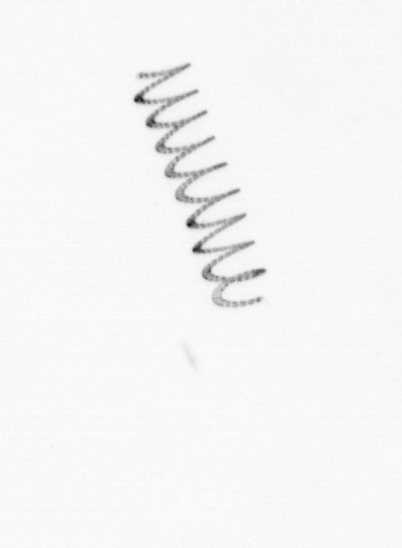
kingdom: Chromista
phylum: Ochrophyta
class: Bacillariophyceae
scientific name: Bacillariophyceae
